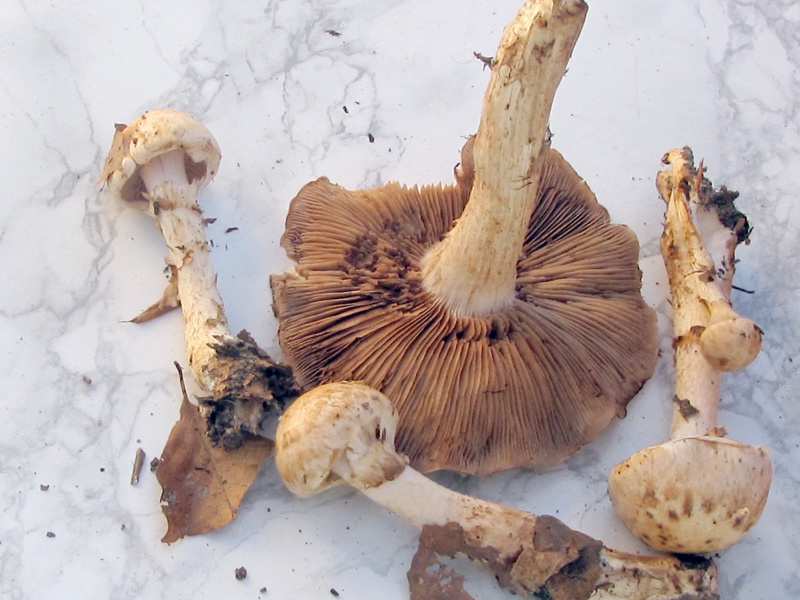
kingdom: Fungi
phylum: Basidiomycota
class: Agaricomycetes
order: Agaricales
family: Hymenogastraceae
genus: Hebeloma
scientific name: Hebeloma radicosum
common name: pælerods-tåreblad
